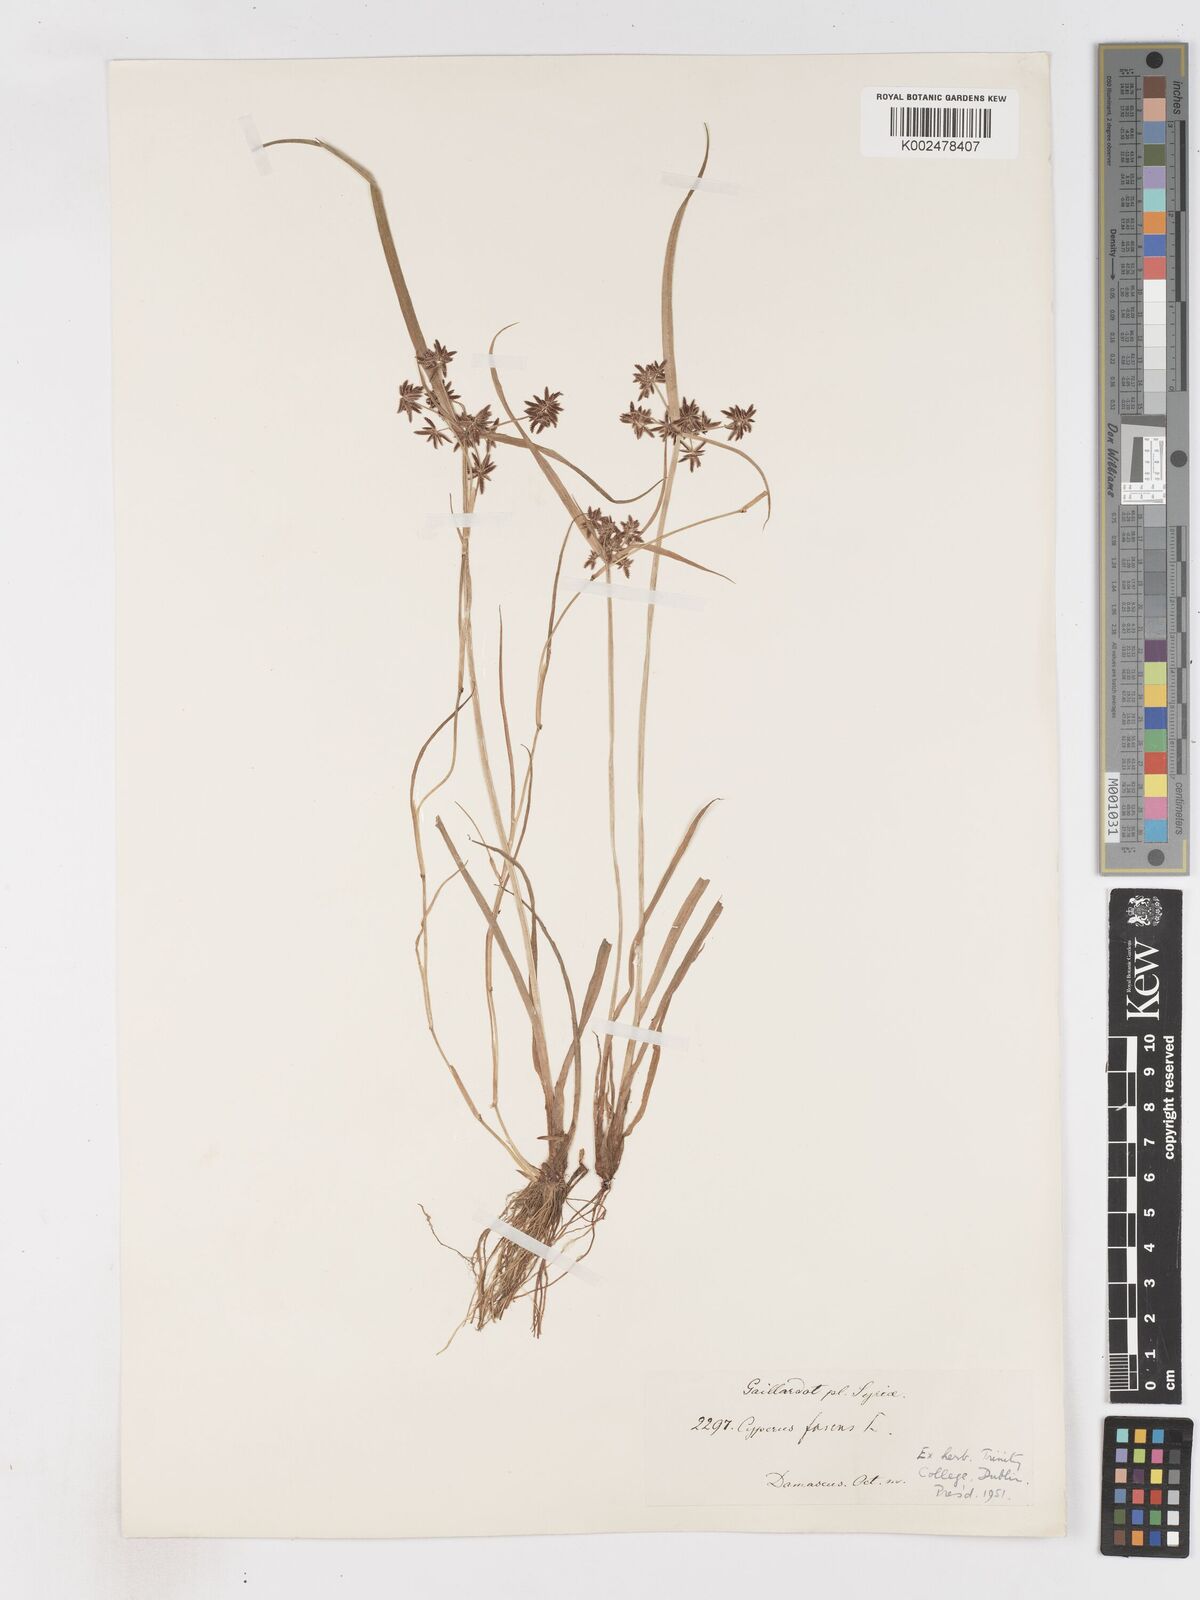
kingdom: Plantae
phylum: Tracheophyta
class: Liliopsida
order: Poales
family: Cyperaceae
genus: Cyperus
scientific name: Cyperus fuscus
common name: Brown galingale
